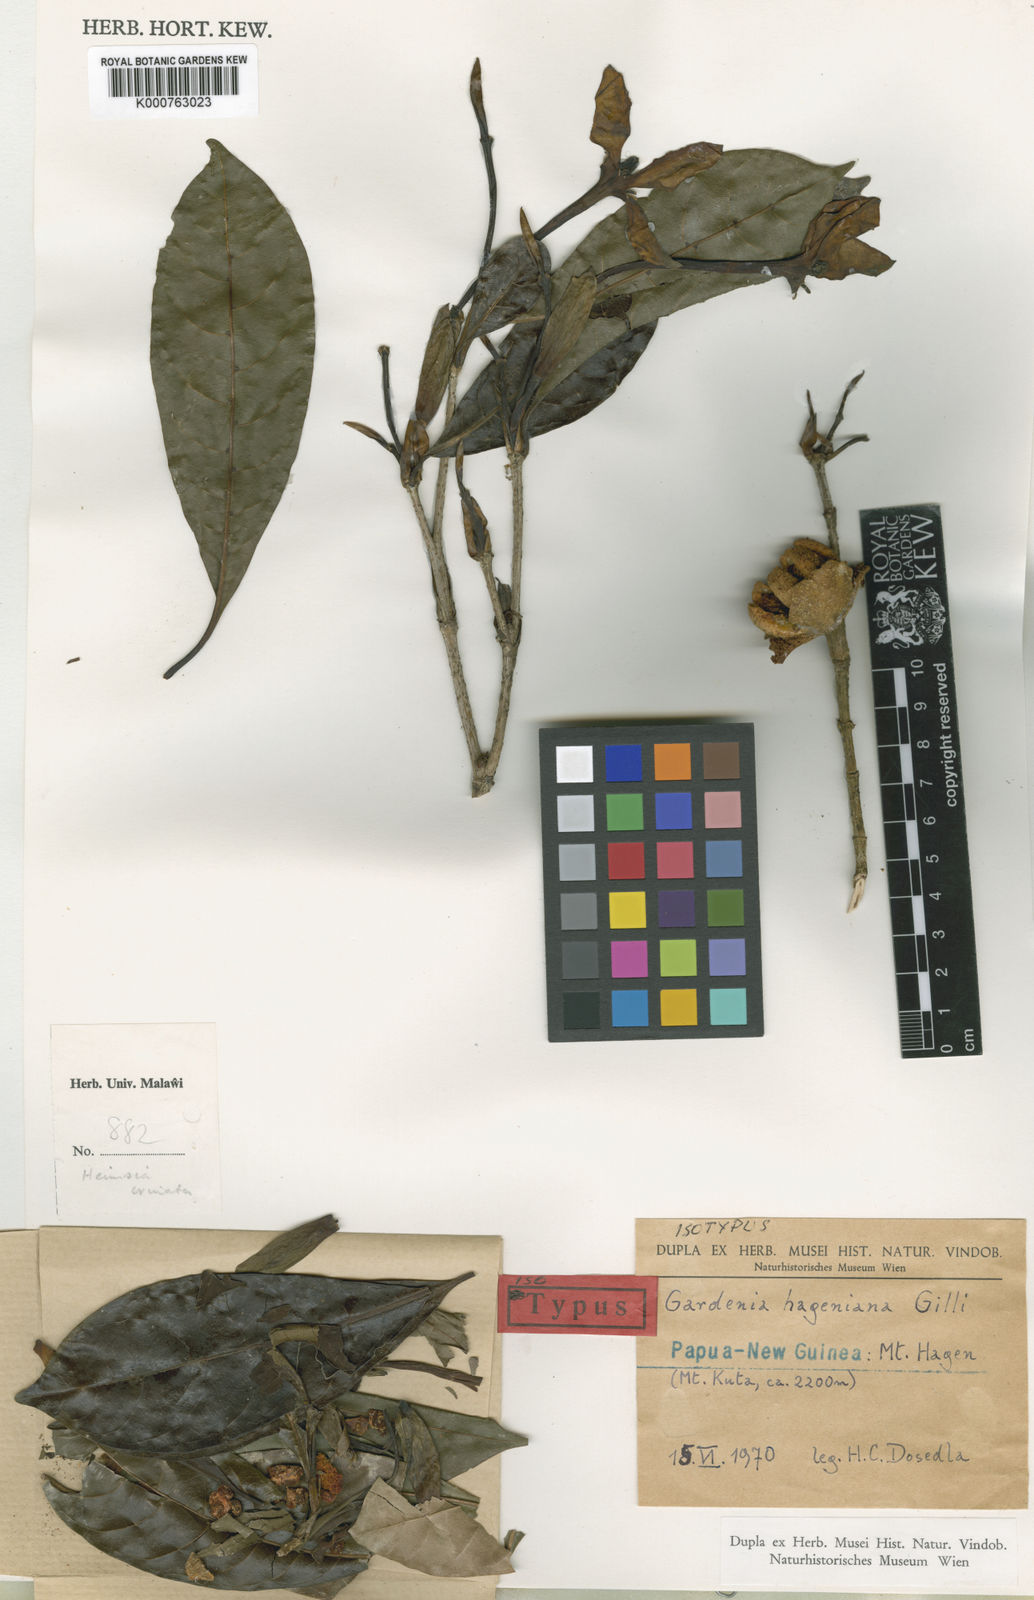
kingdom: Plantae
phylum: Tracheophyta
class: Magnoliopsida
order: Gentianales
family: Rubiaceae
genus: Gardenia
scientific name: Gardenia hageniana
